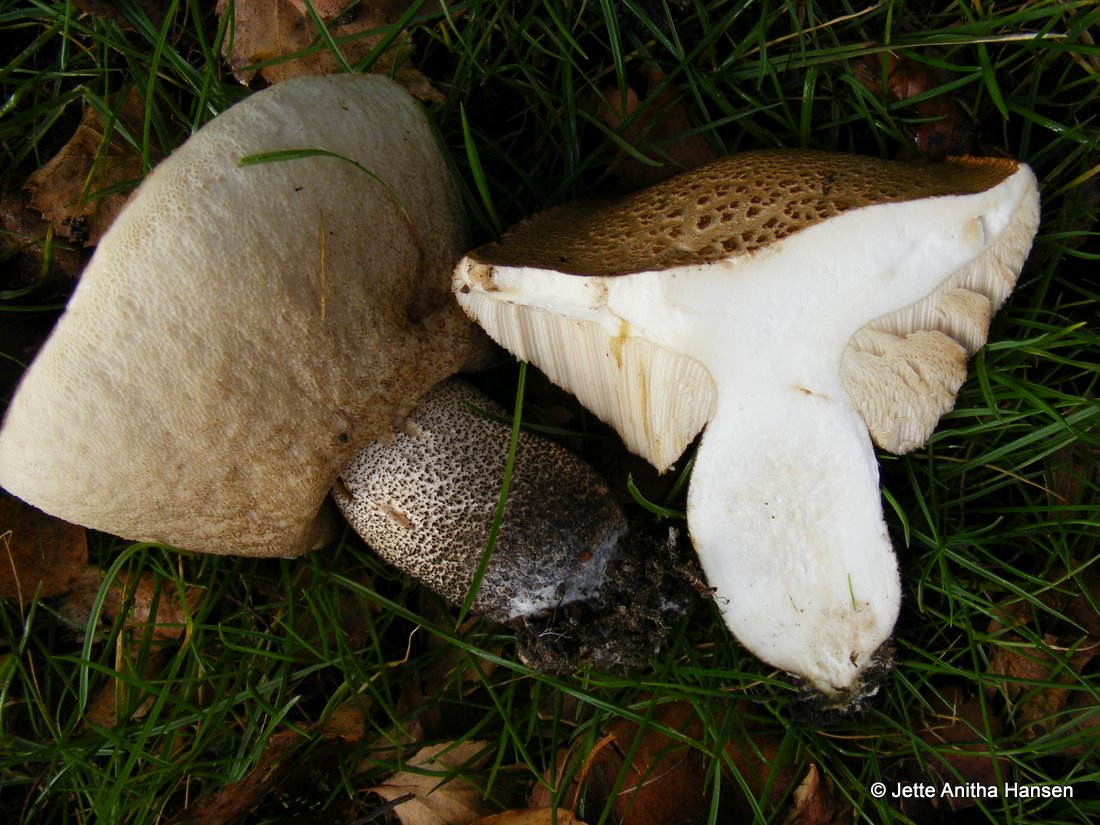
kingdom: Fungi
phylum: Basidiomycota
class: Agaricomycetes
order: Boletales
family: Boletaceae
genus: Leccinum
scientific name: Leccinum scabrum
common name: brun skælrørhat
